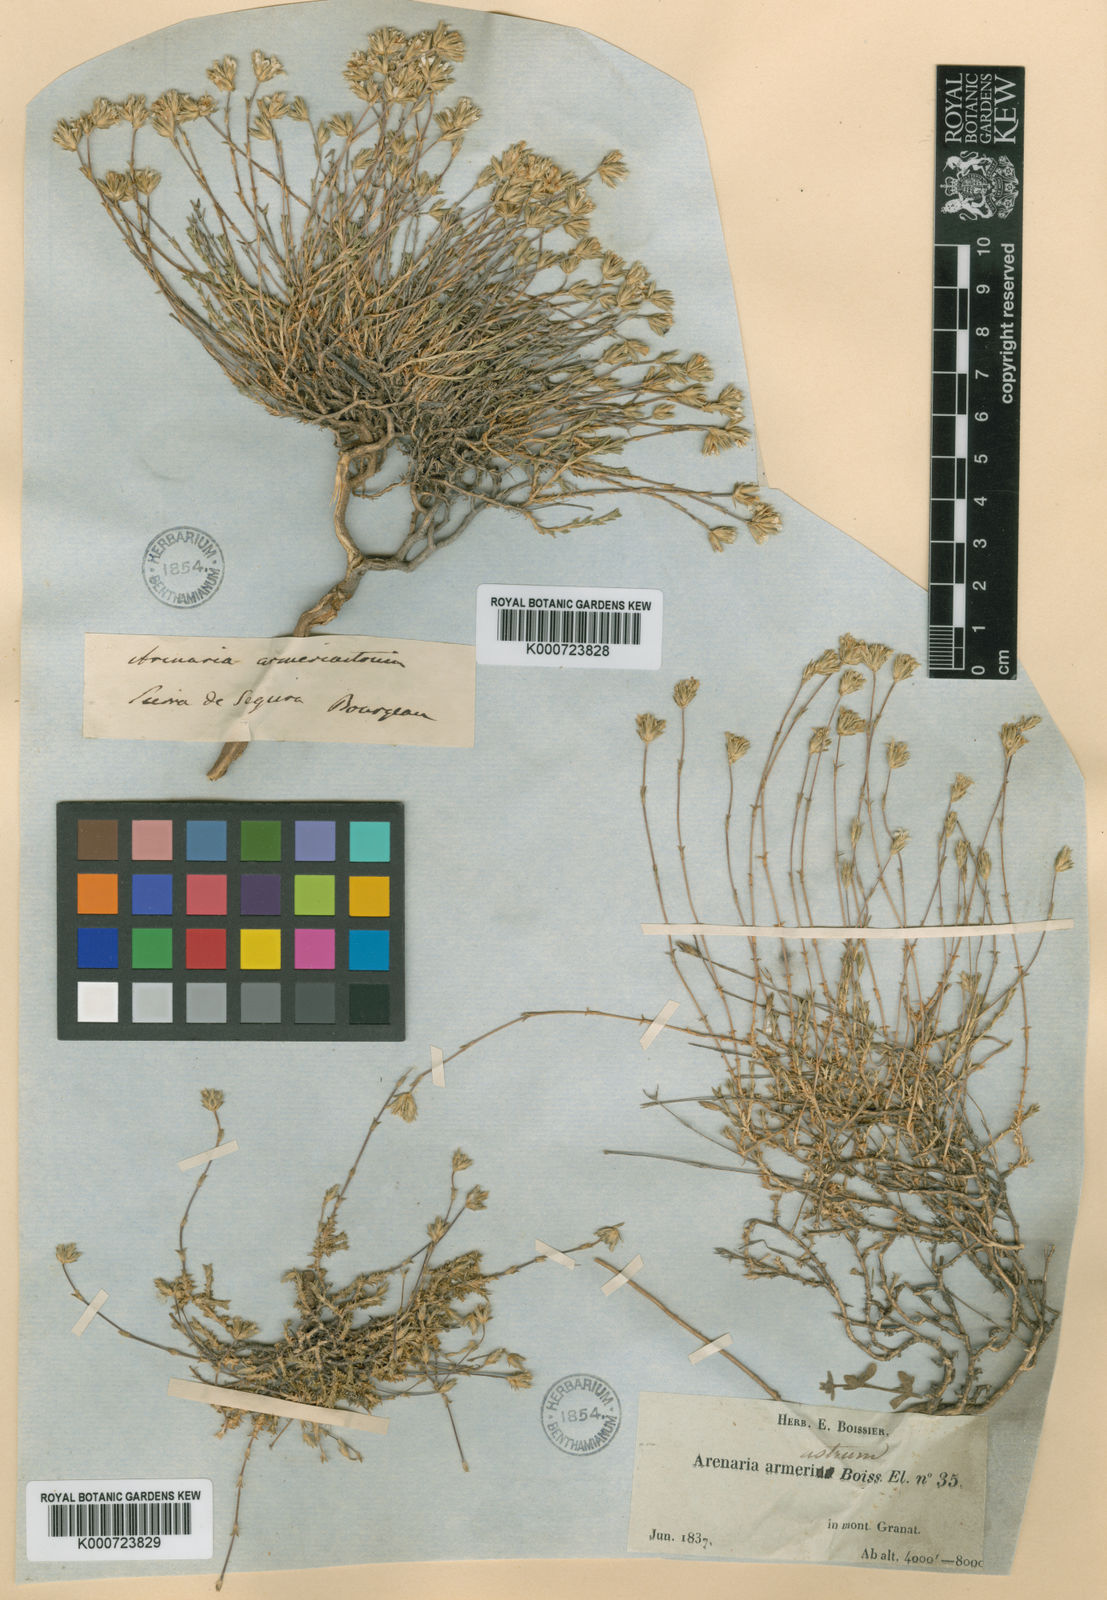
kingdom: Plantae
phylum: Tracheophyta
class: Magnoliopsida
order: Caryophyllales
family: Caryophyllaceae
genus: Arenaria
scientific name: Arenaria armerina
